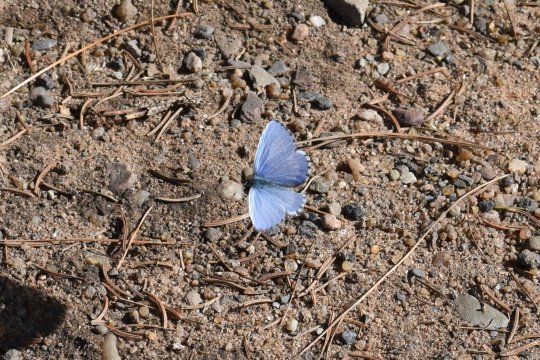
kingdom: Animalia
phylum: Arthropoda
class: Insecta
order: Lepidoptera
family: Lycaenidae
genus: Celastrina
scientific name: Celastrina lucia
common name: Northern Spring Azure
